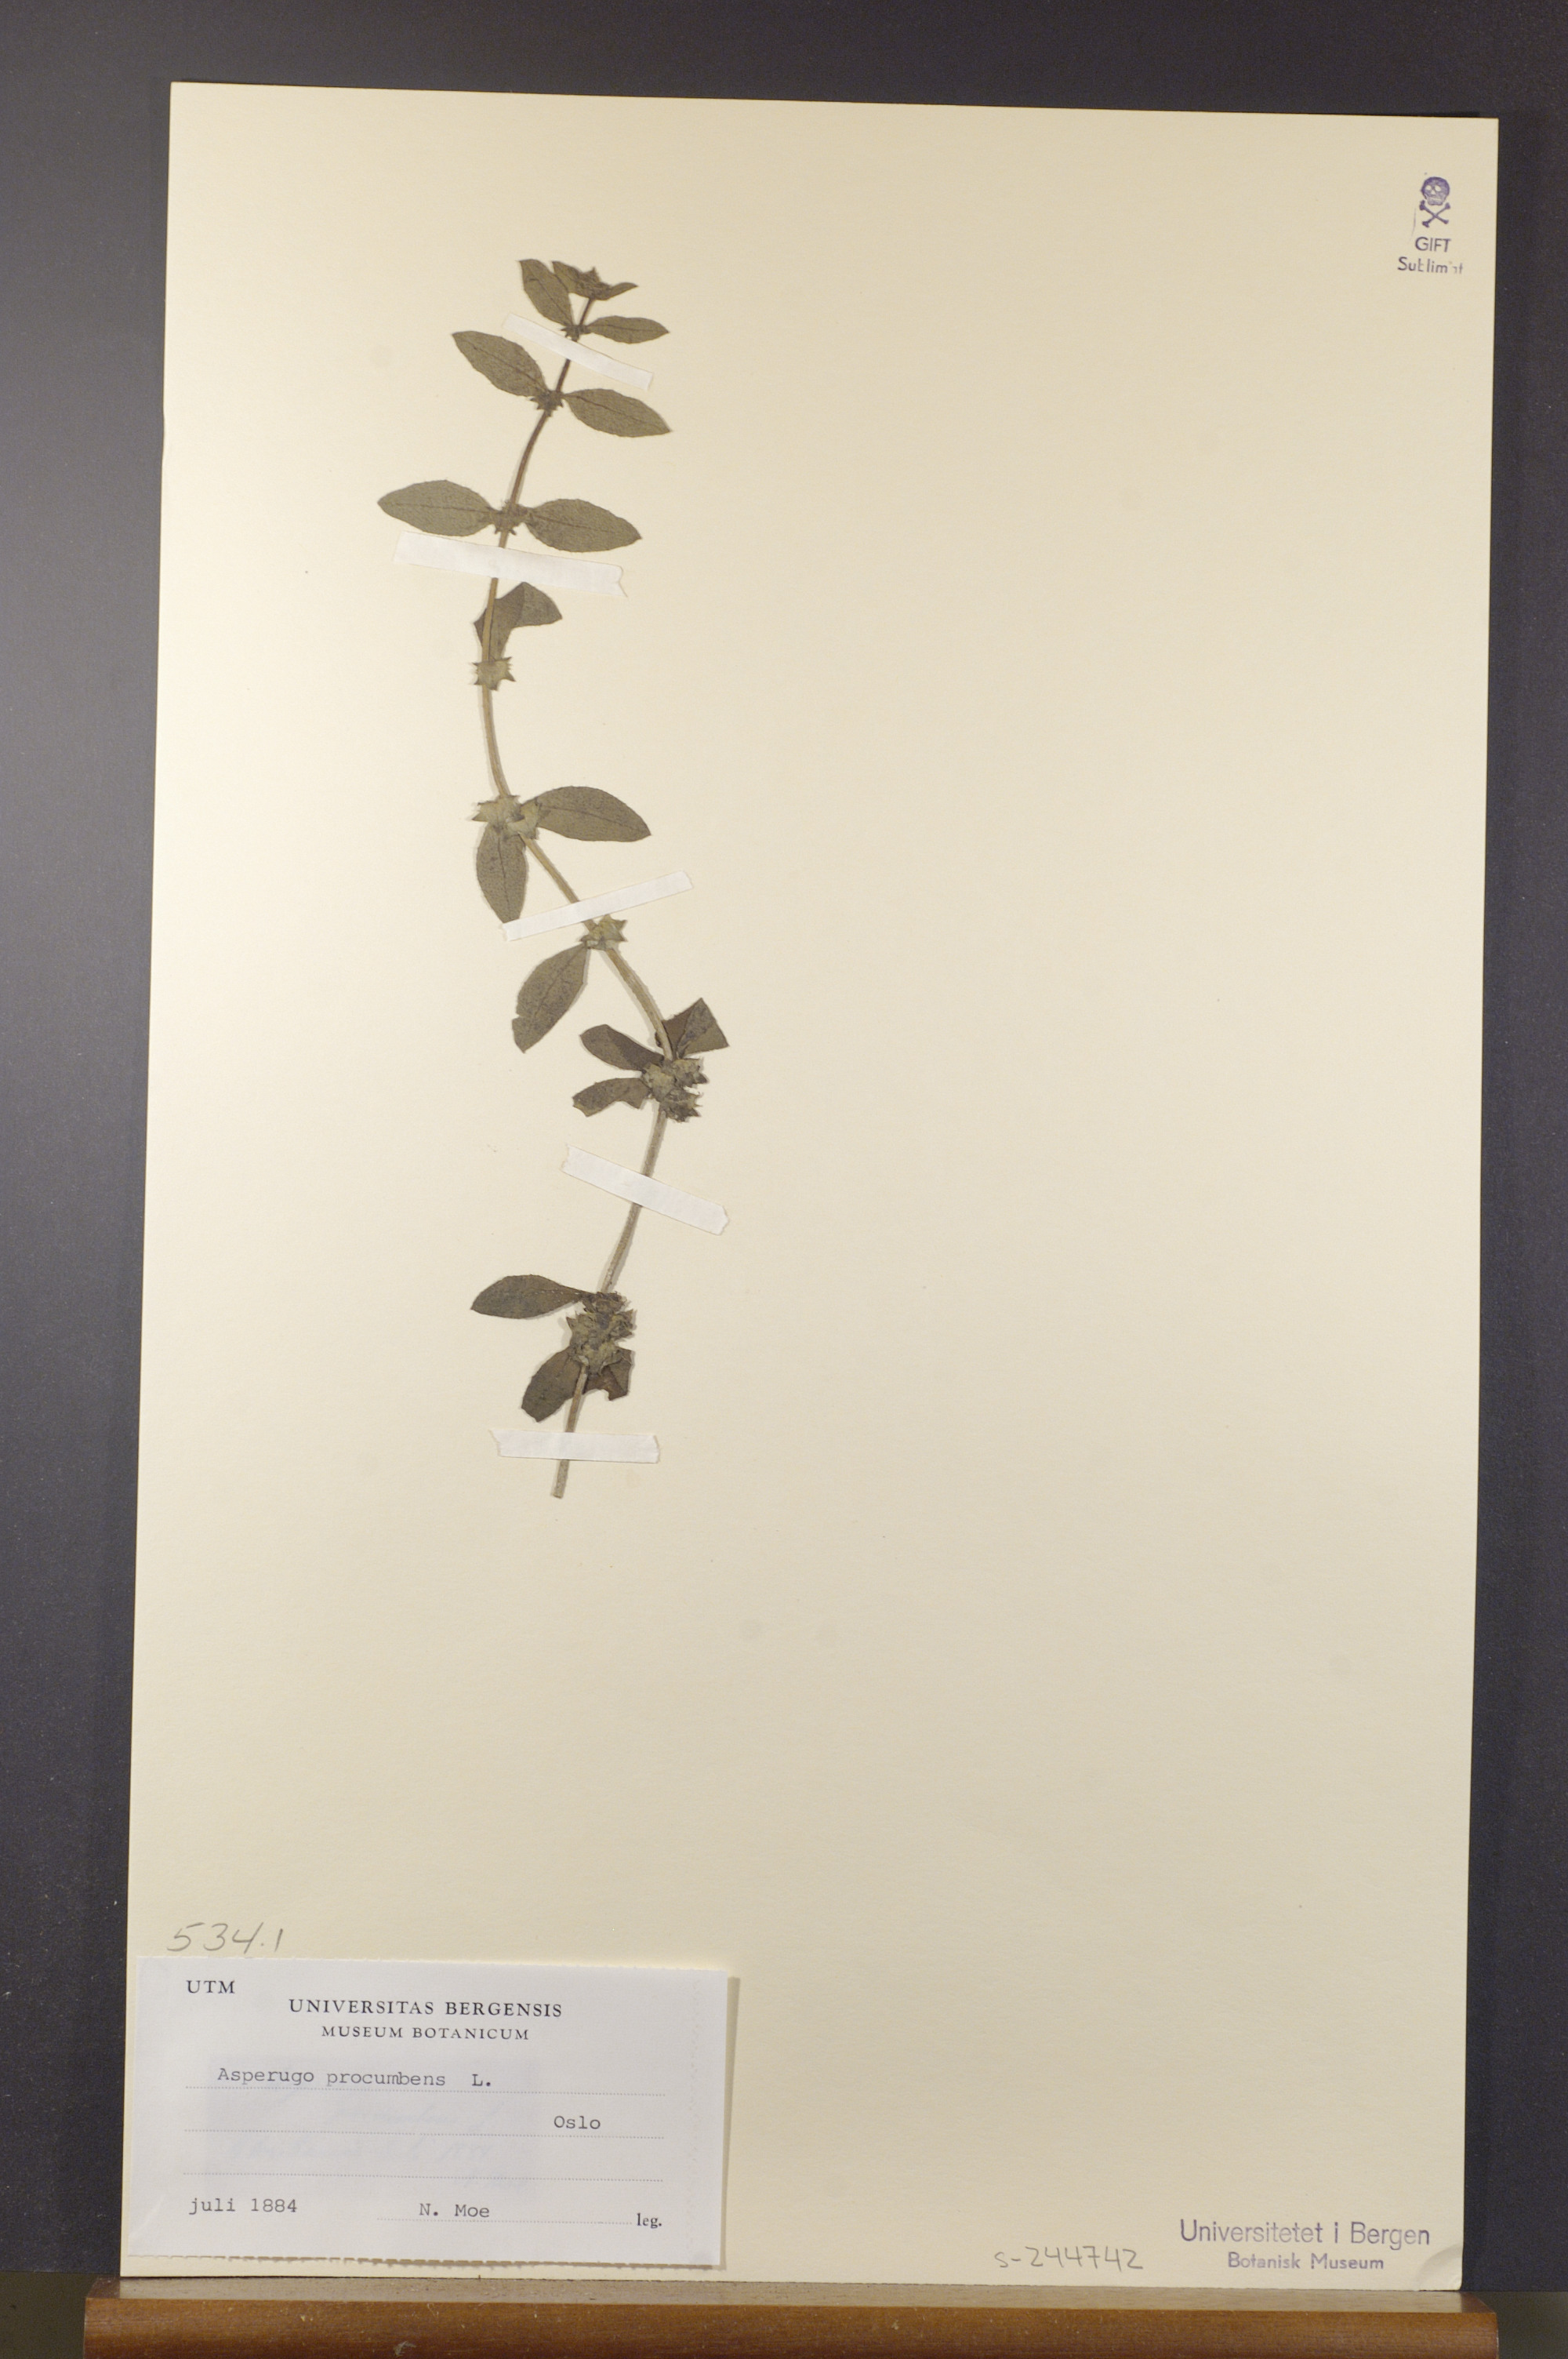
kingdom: Plantae
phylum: Tracheophyta
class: Magnoliopsida
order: Boraginales
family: Boraginaceae
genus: Asperugo
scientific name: Asperugo procumbens
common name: Madwort
